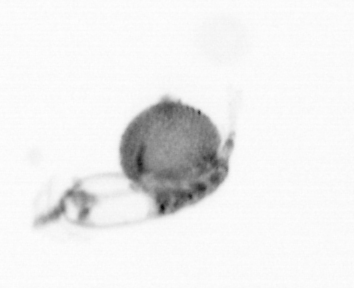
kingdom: Animalia
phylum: Arthropoda
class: Copepoda
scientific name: Copepoda
